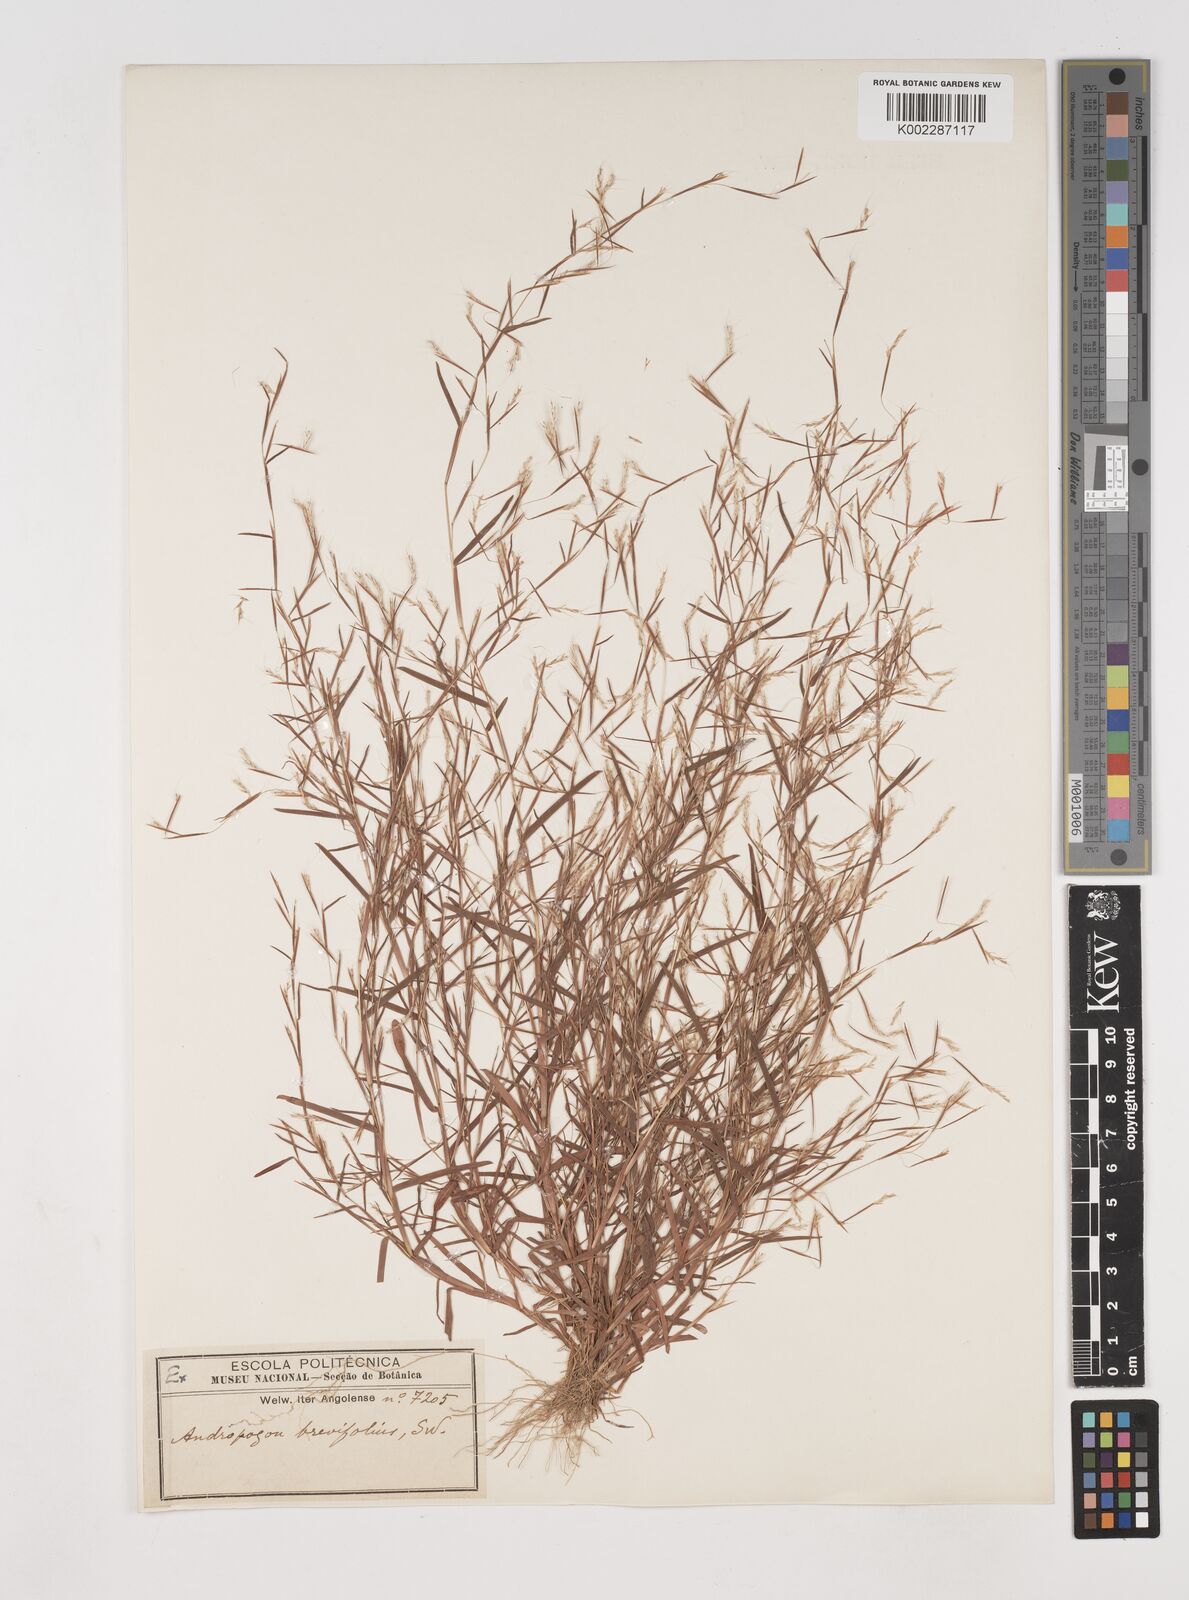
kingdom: Plantae
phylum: Tracheophyta
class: Liliopsida
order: Poales
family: Poaceae
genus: Schizachyrium
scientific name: Schizachyrium brevifolium
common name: Serillo dulce
